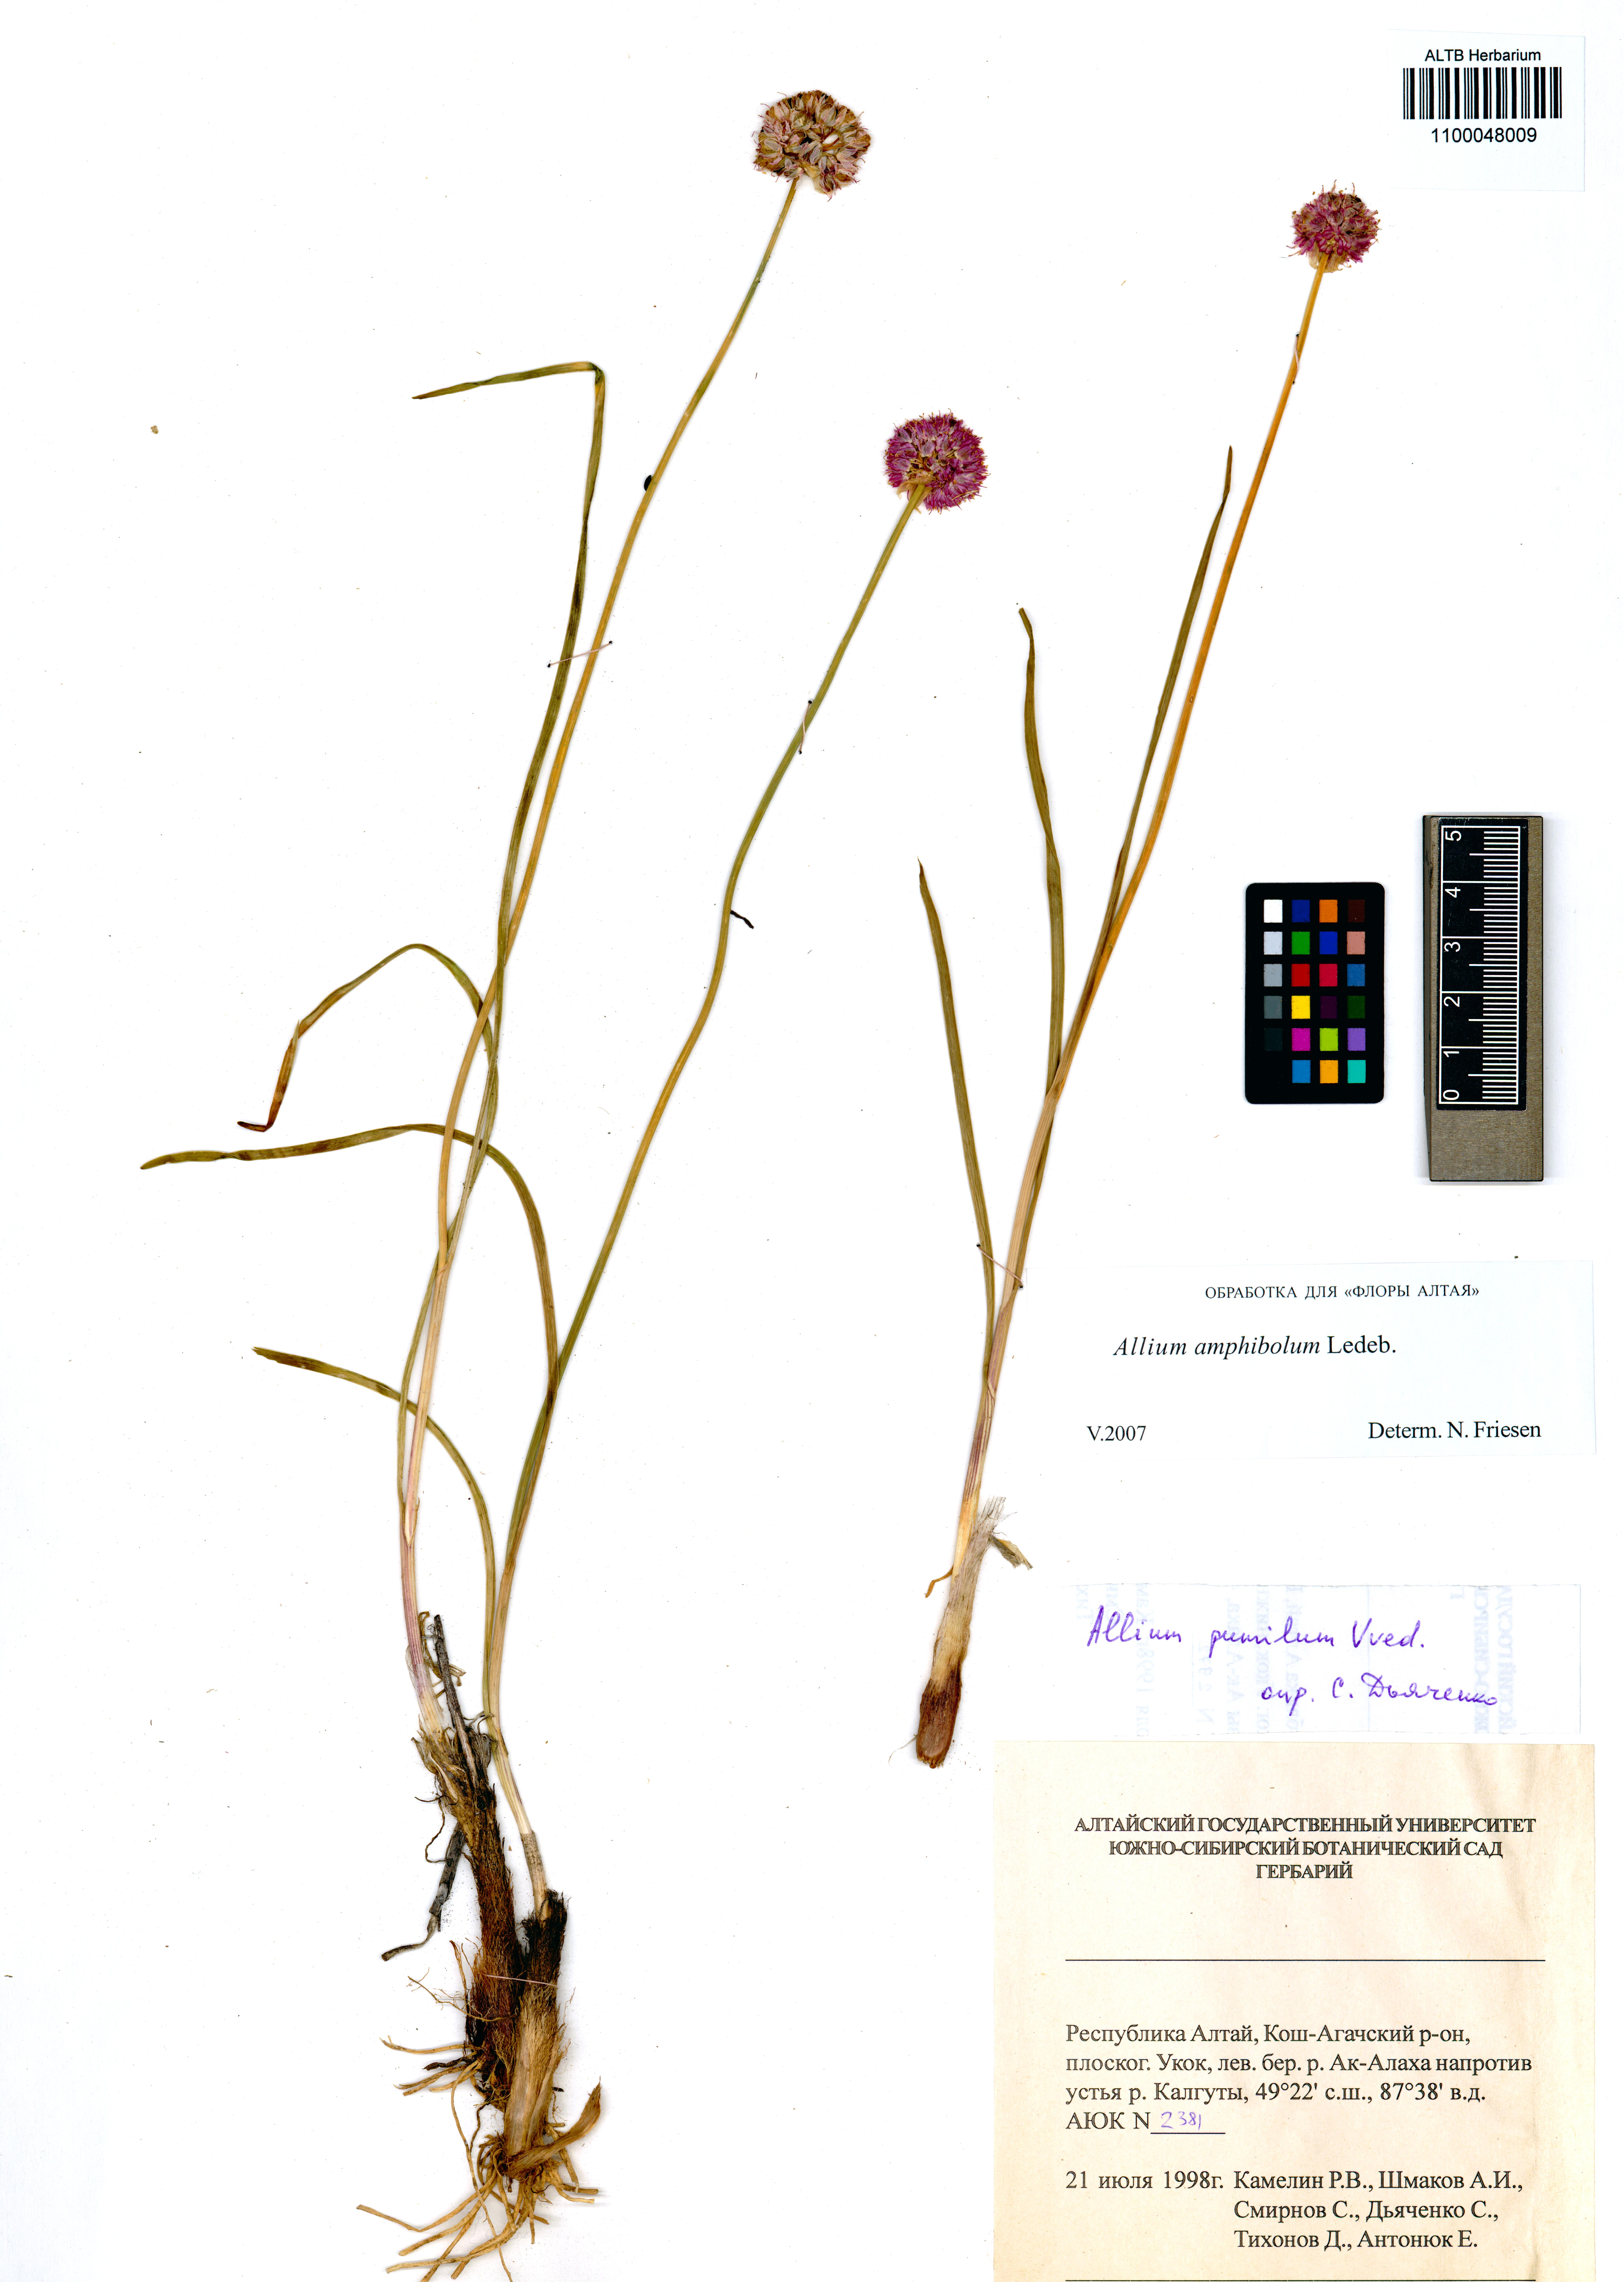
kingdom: Plantae
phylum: Tracheophyta
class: Liliopsida
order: Asparagales
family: Amaryllidaceae
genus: Allium
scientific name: Allium amphibolum
